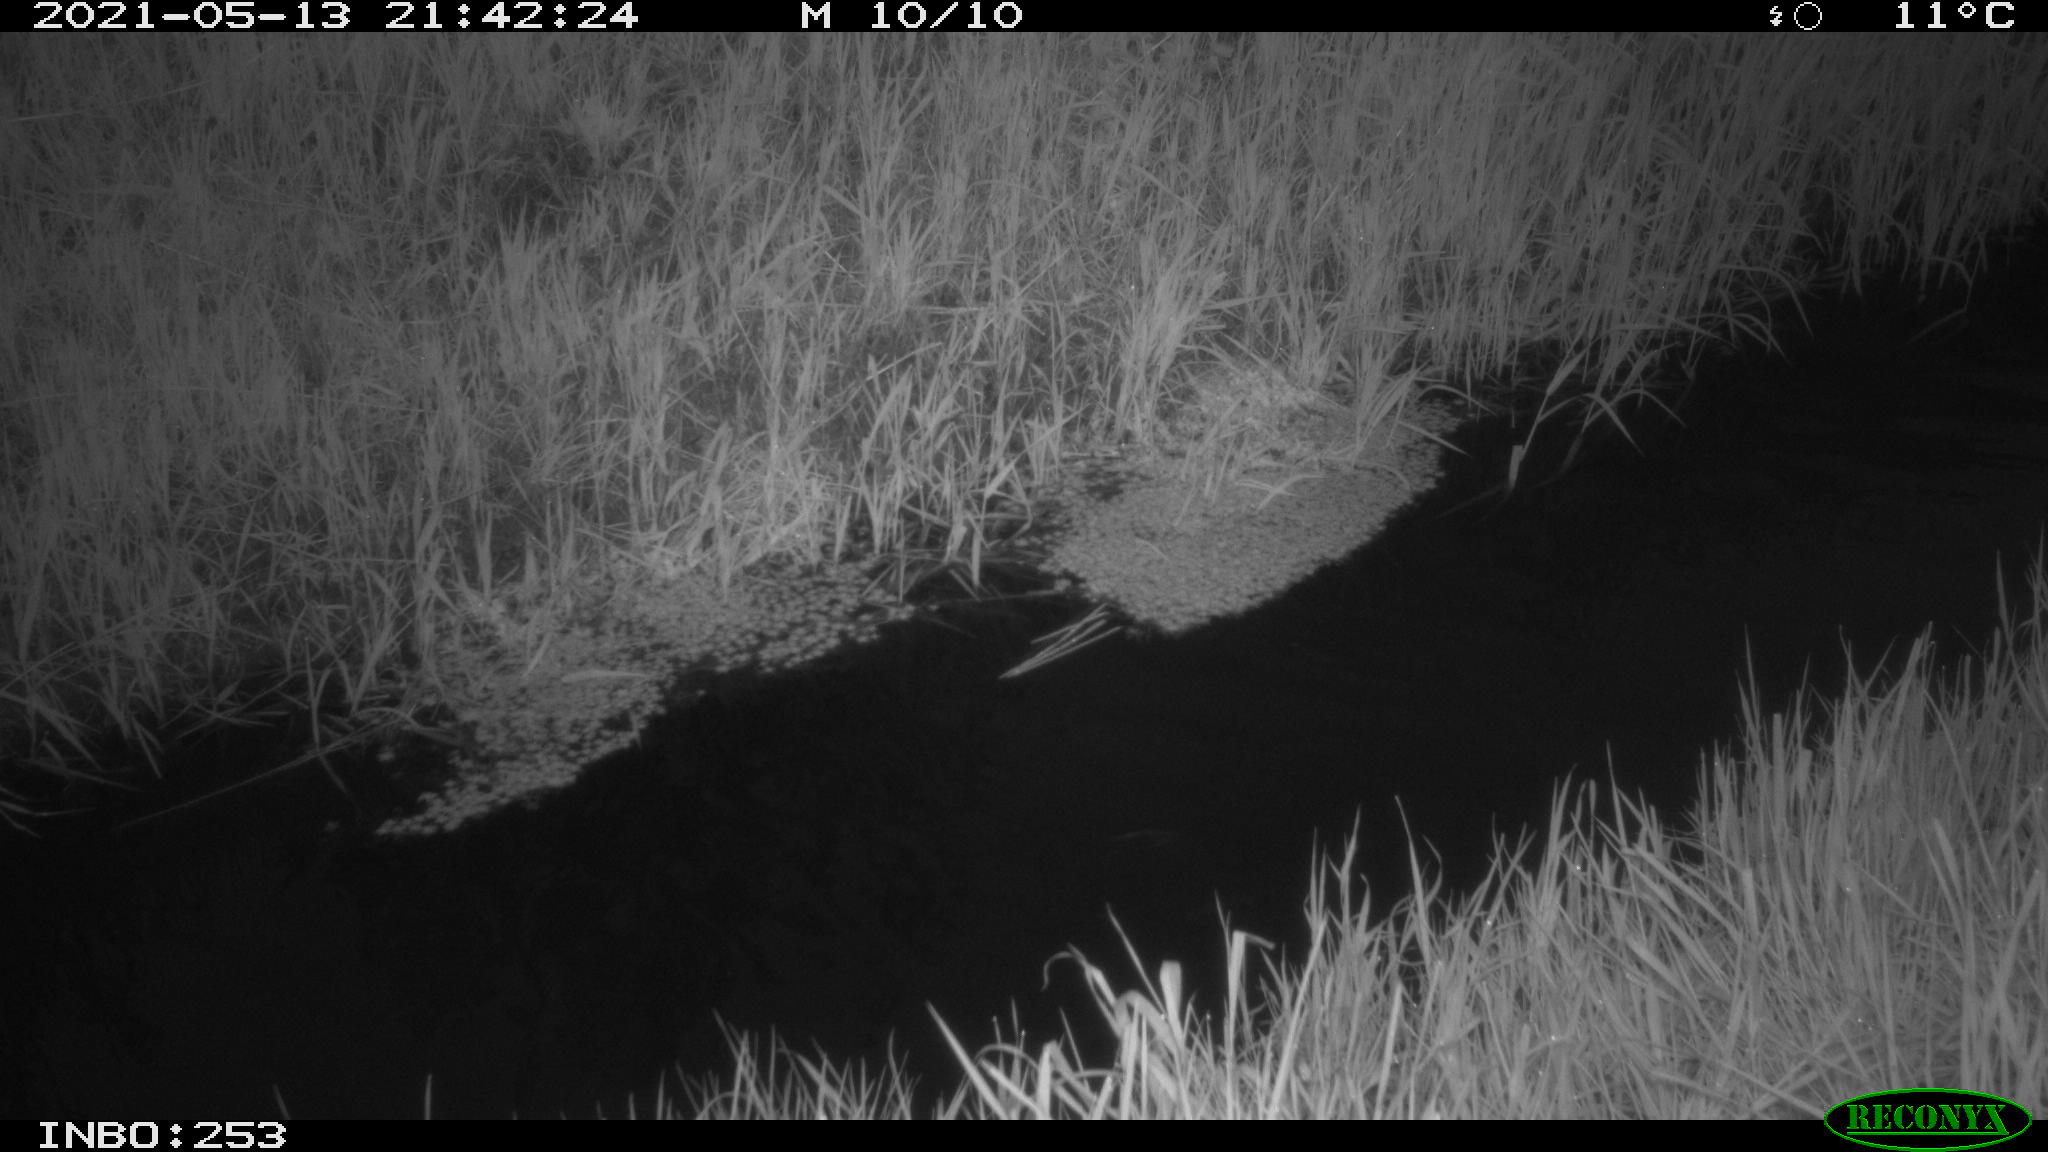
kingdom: Animalia
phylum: Chordata
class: Aves
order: Anseriformes
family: Anatidae
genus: Anas
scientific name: Anas platyrhynchos
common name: Mallard
